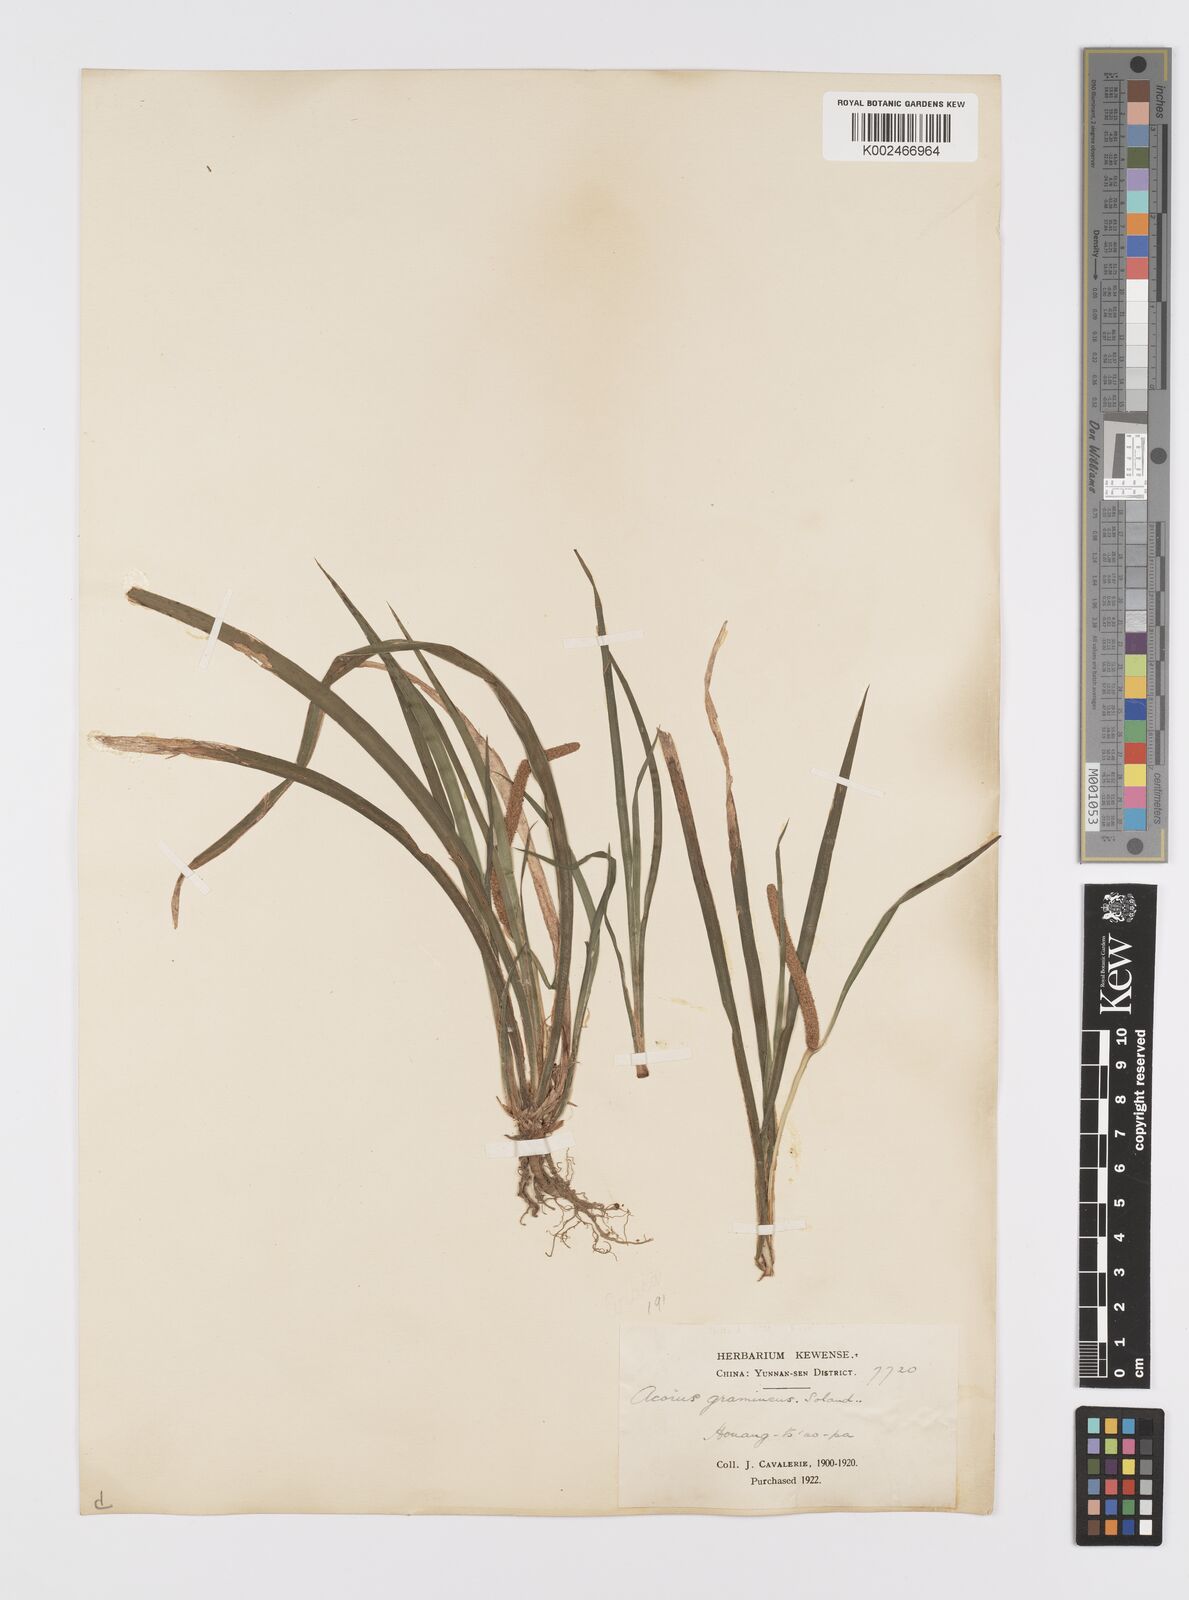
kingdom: Plantae
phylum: Tracheophyta
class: Liliopsida
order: Acorales
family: Acoraceae
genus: Acorus
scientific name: Acorus gramineus
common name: Slender sweet-flag
